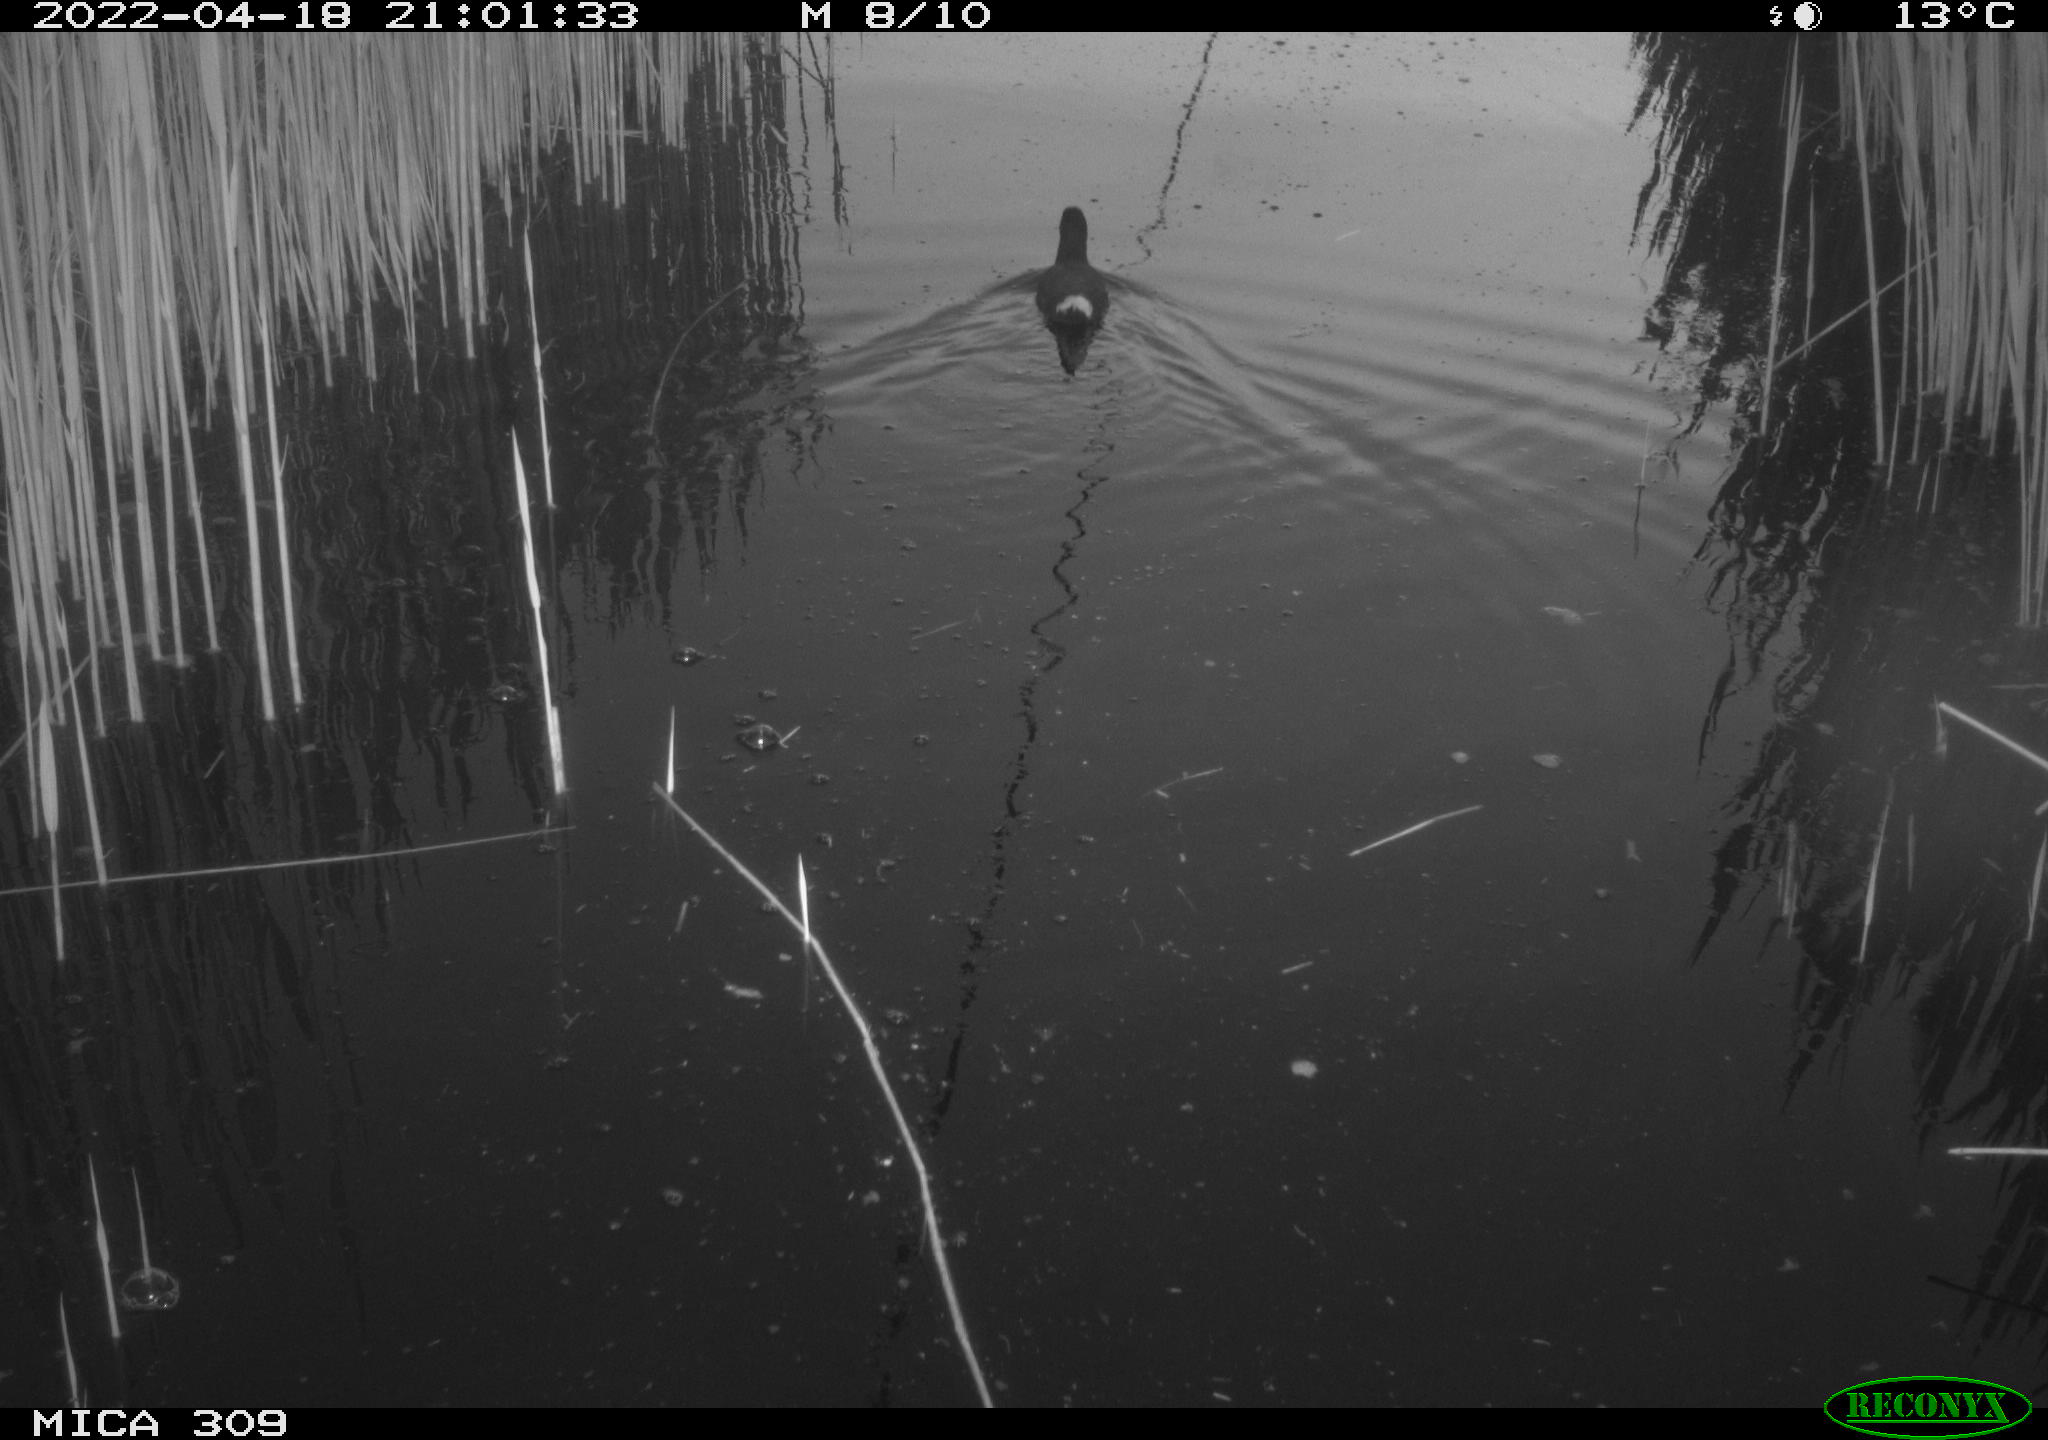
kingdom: Animalia
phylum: Chordata
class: Aves
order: Gruiformes
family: Rallidae
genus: Gallinula
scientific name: Gallinula chloropus
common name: Common moorhen
